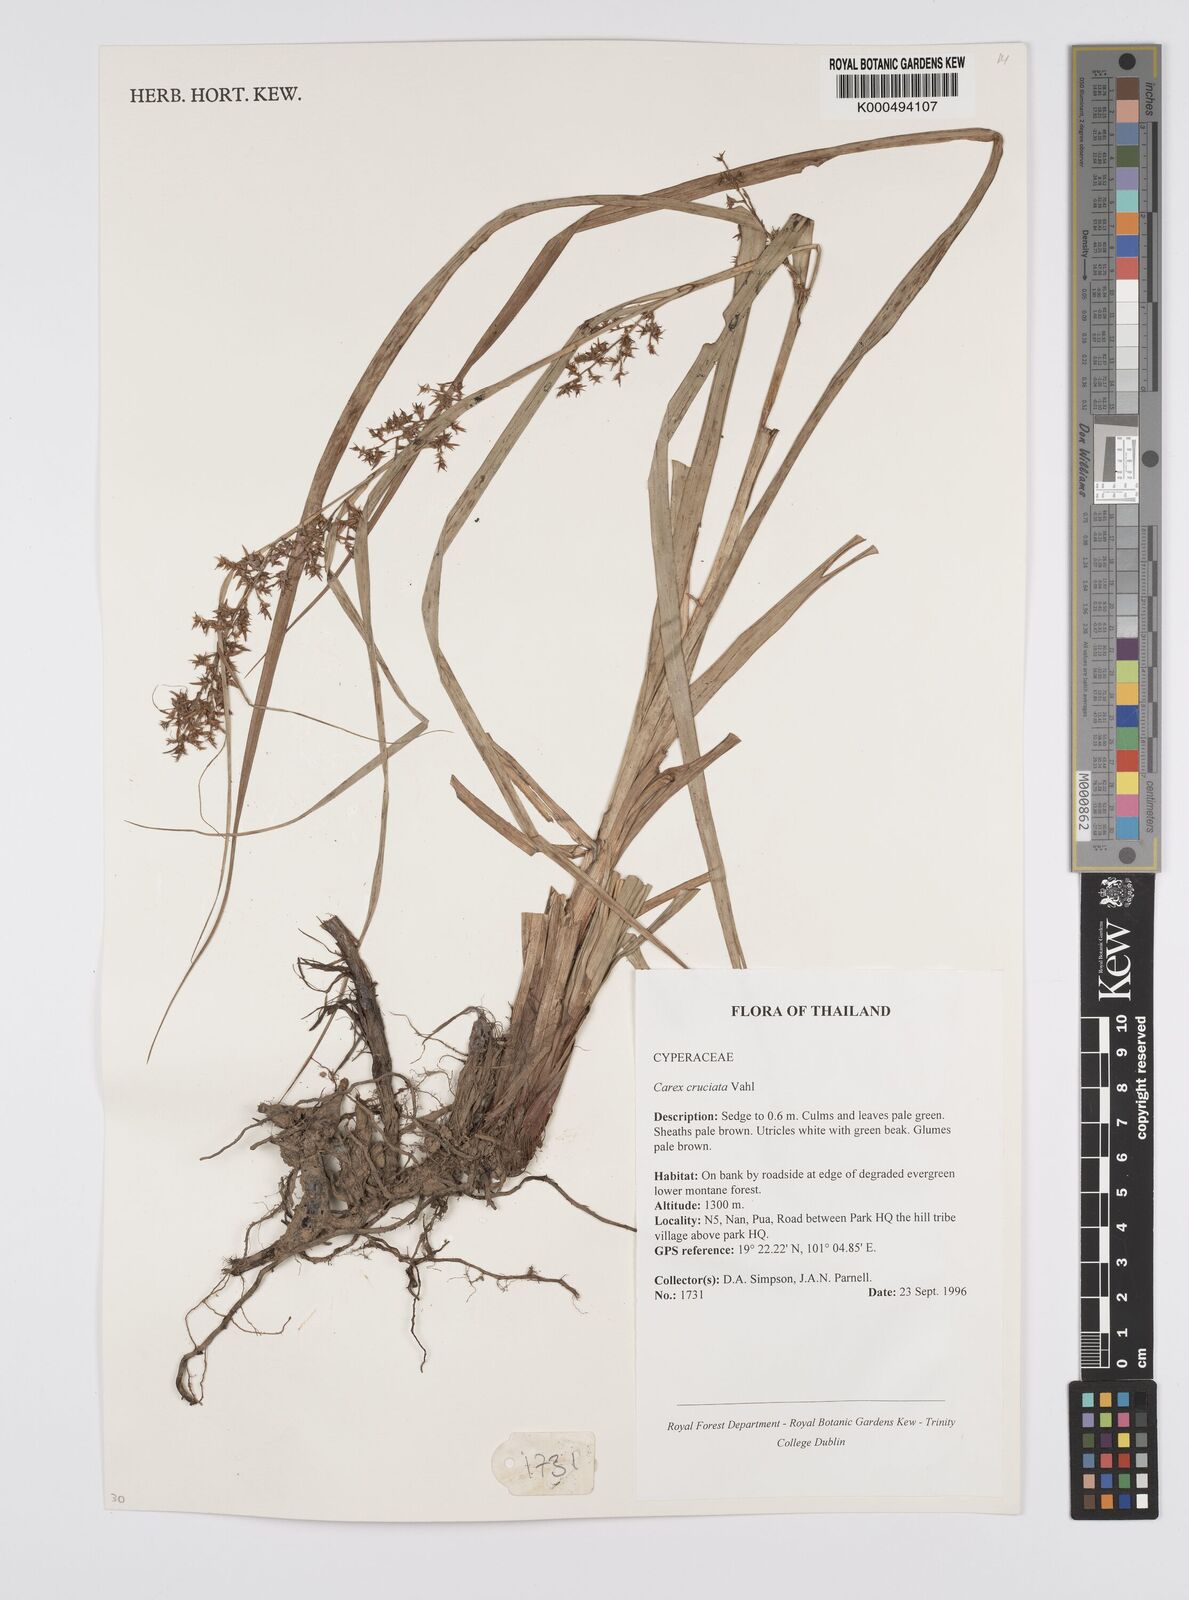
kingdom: Plantae
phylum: Tracheophyta
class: Liliopsida
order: Poales
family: Cyperaceae
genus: Carex
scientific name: Carex
